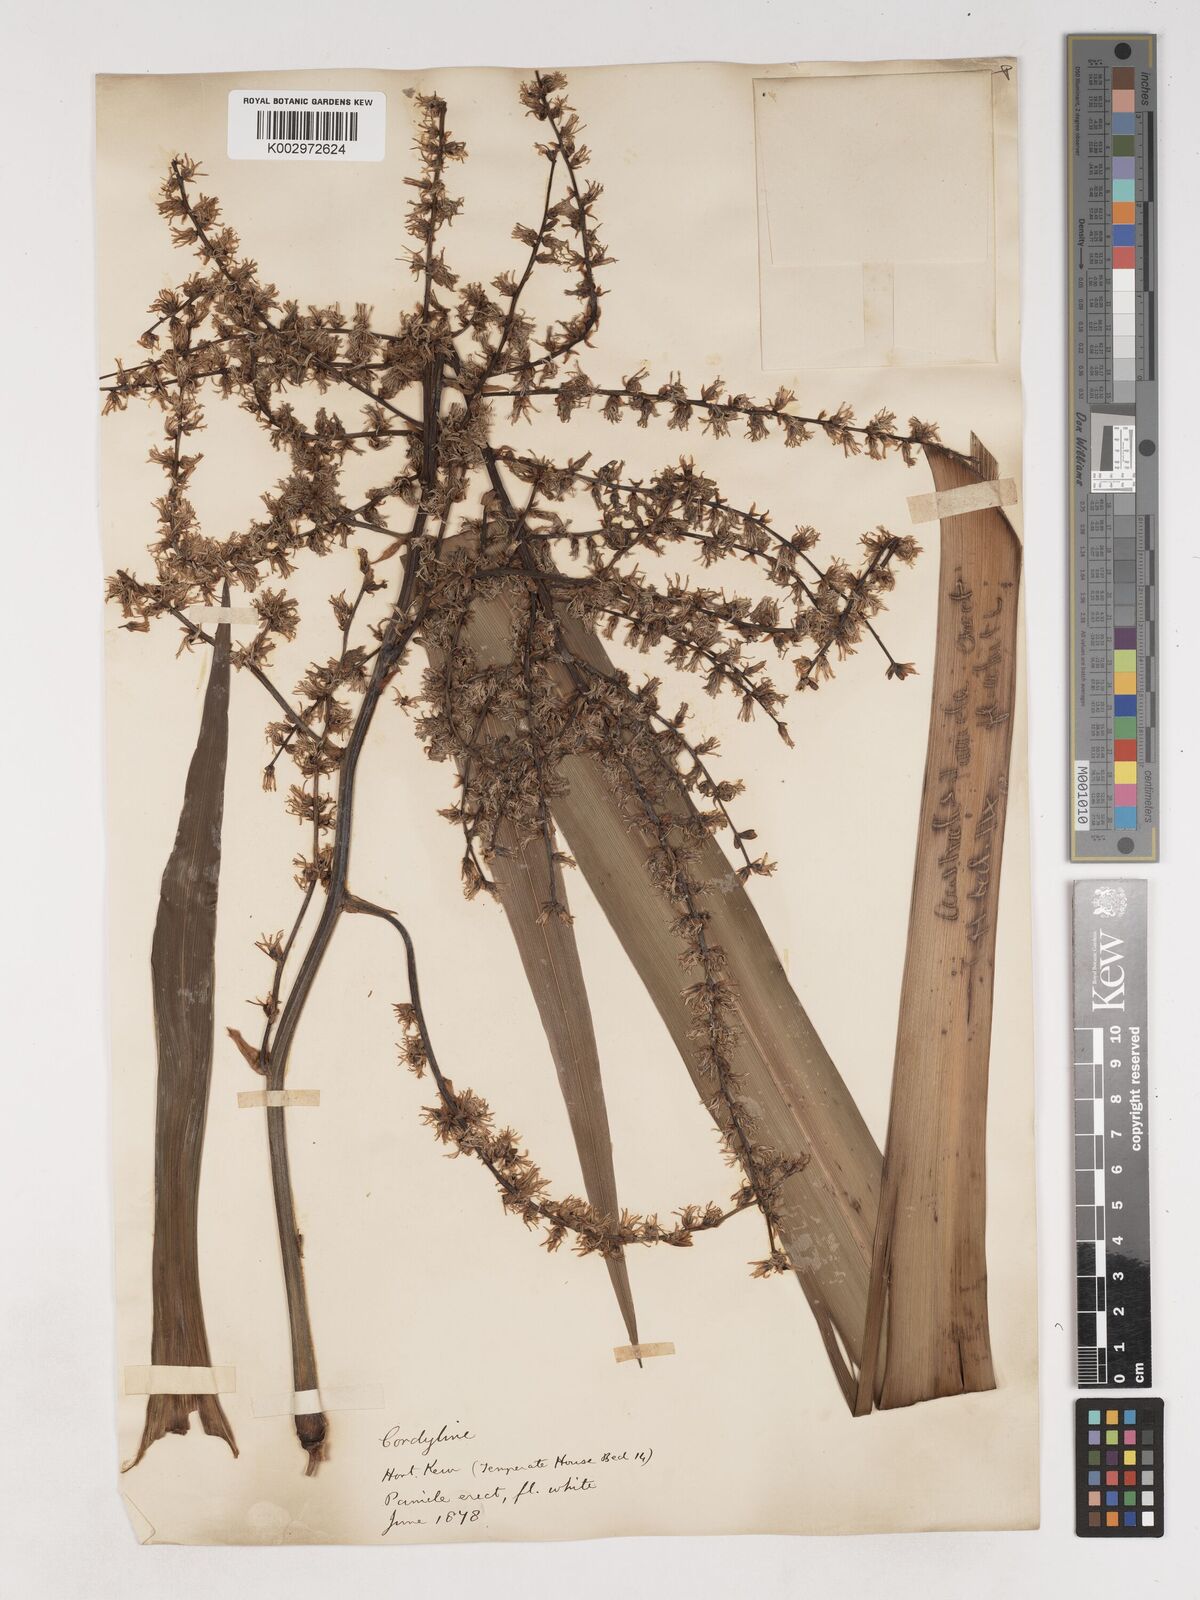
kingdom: Plantae
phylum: Tracheophyta
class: Liliopsida
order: Asparagales
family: Asparagaceae
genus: Cordyline
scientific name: Cordyline
